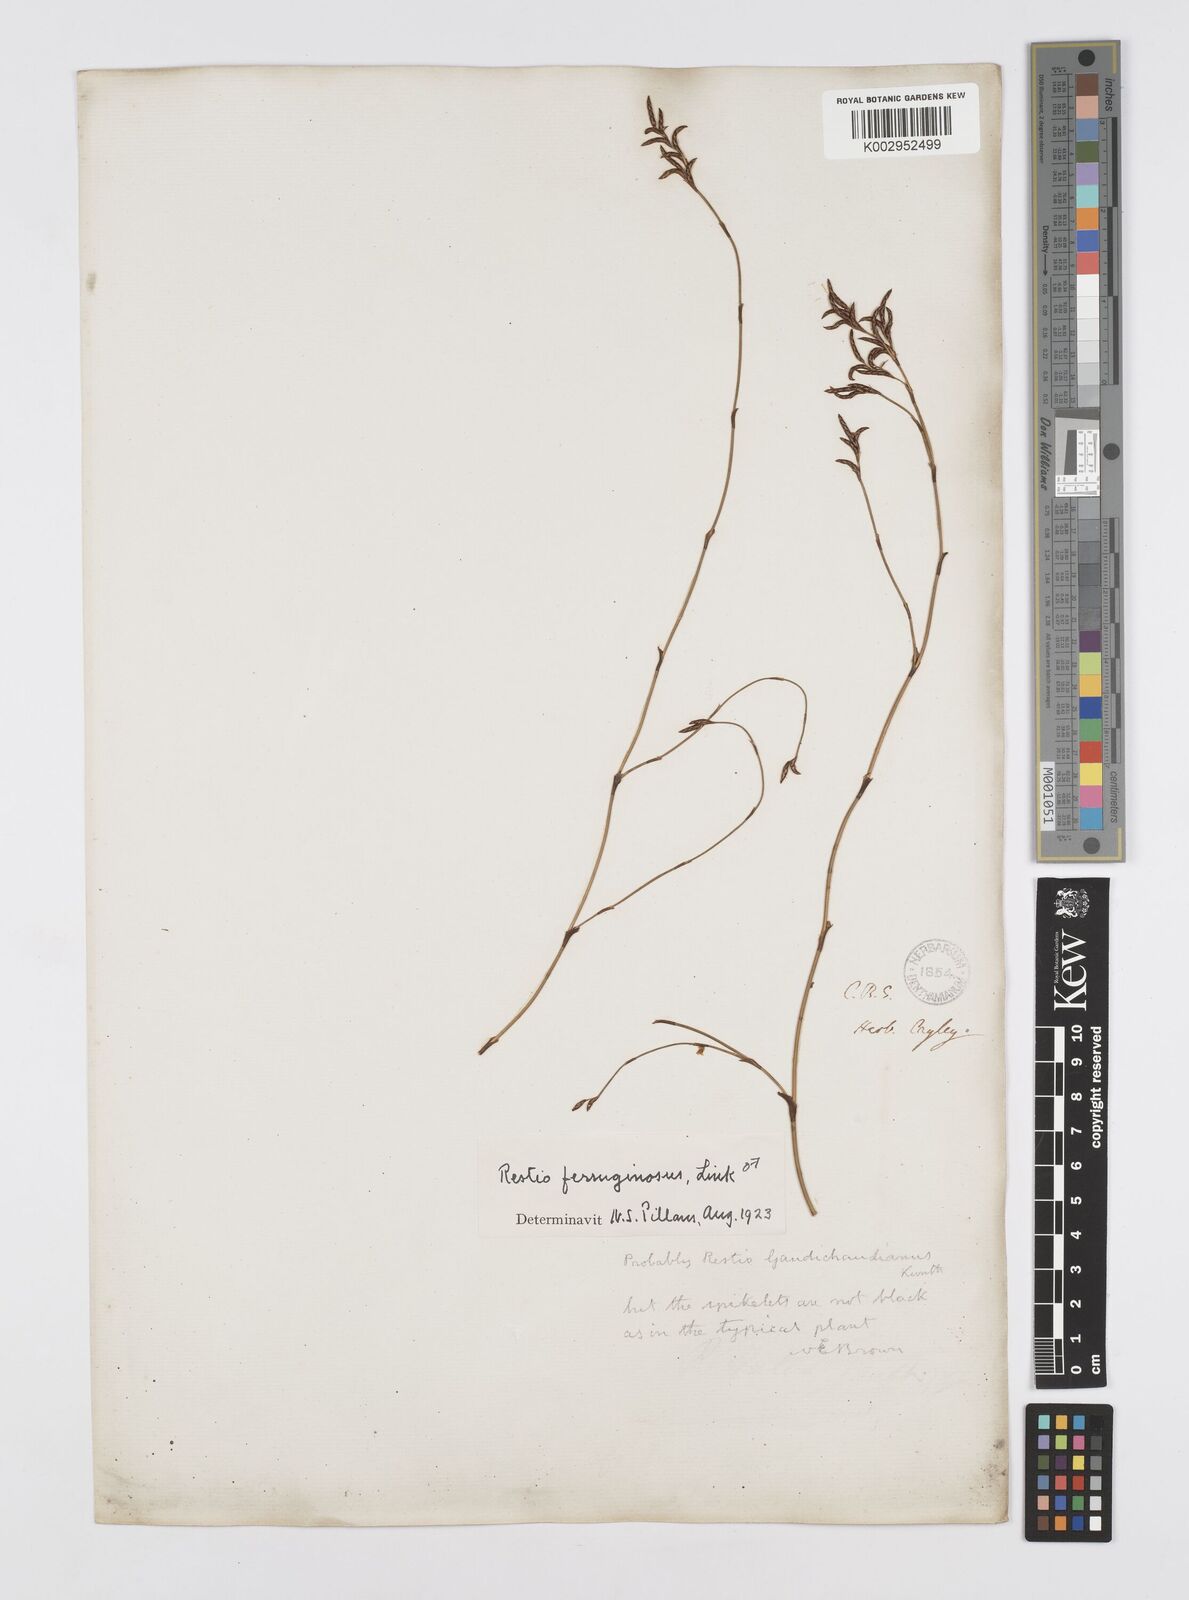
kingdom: Plantae
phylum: Tracheophyta
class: Liliopsida
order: Poales
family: Restionaceae
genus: Restio
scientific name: Restio gaudichaudianus
